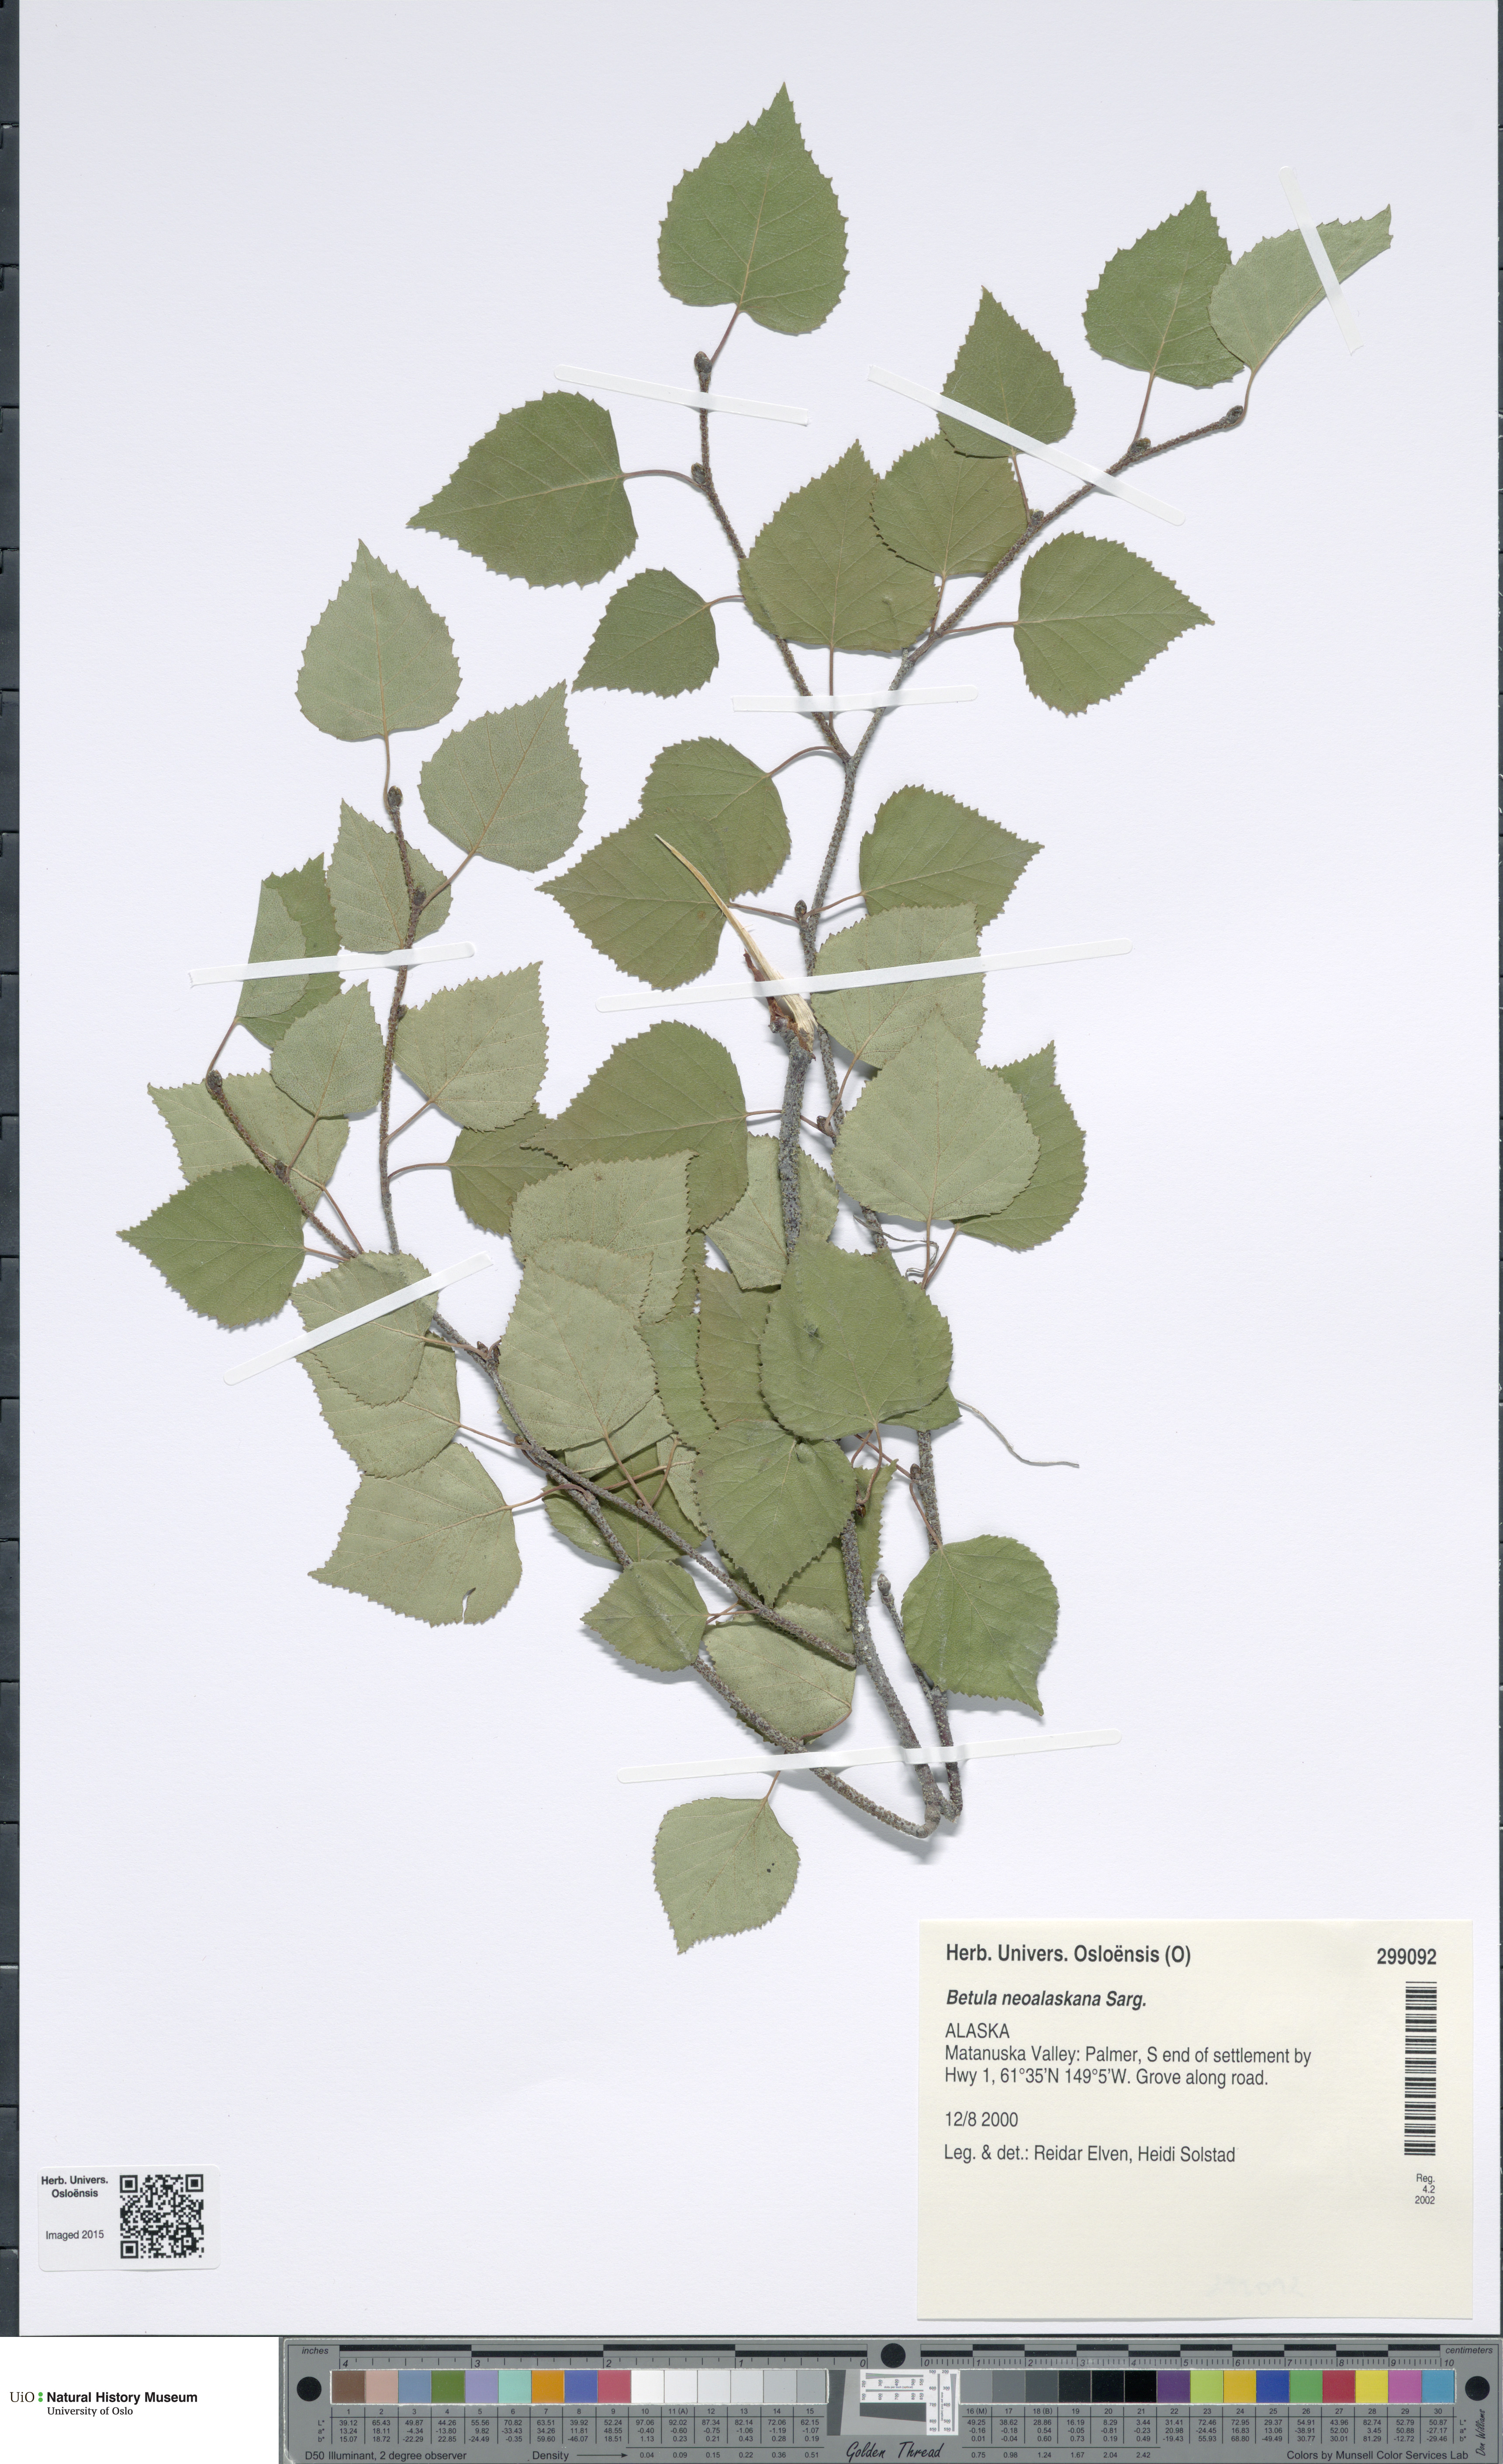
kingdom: Plantae
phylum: Tracheophyta
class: Magnoliopsida
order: Fagales
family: Betulaceae
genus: Betula
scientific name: Betula pendula
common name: Silver birch
